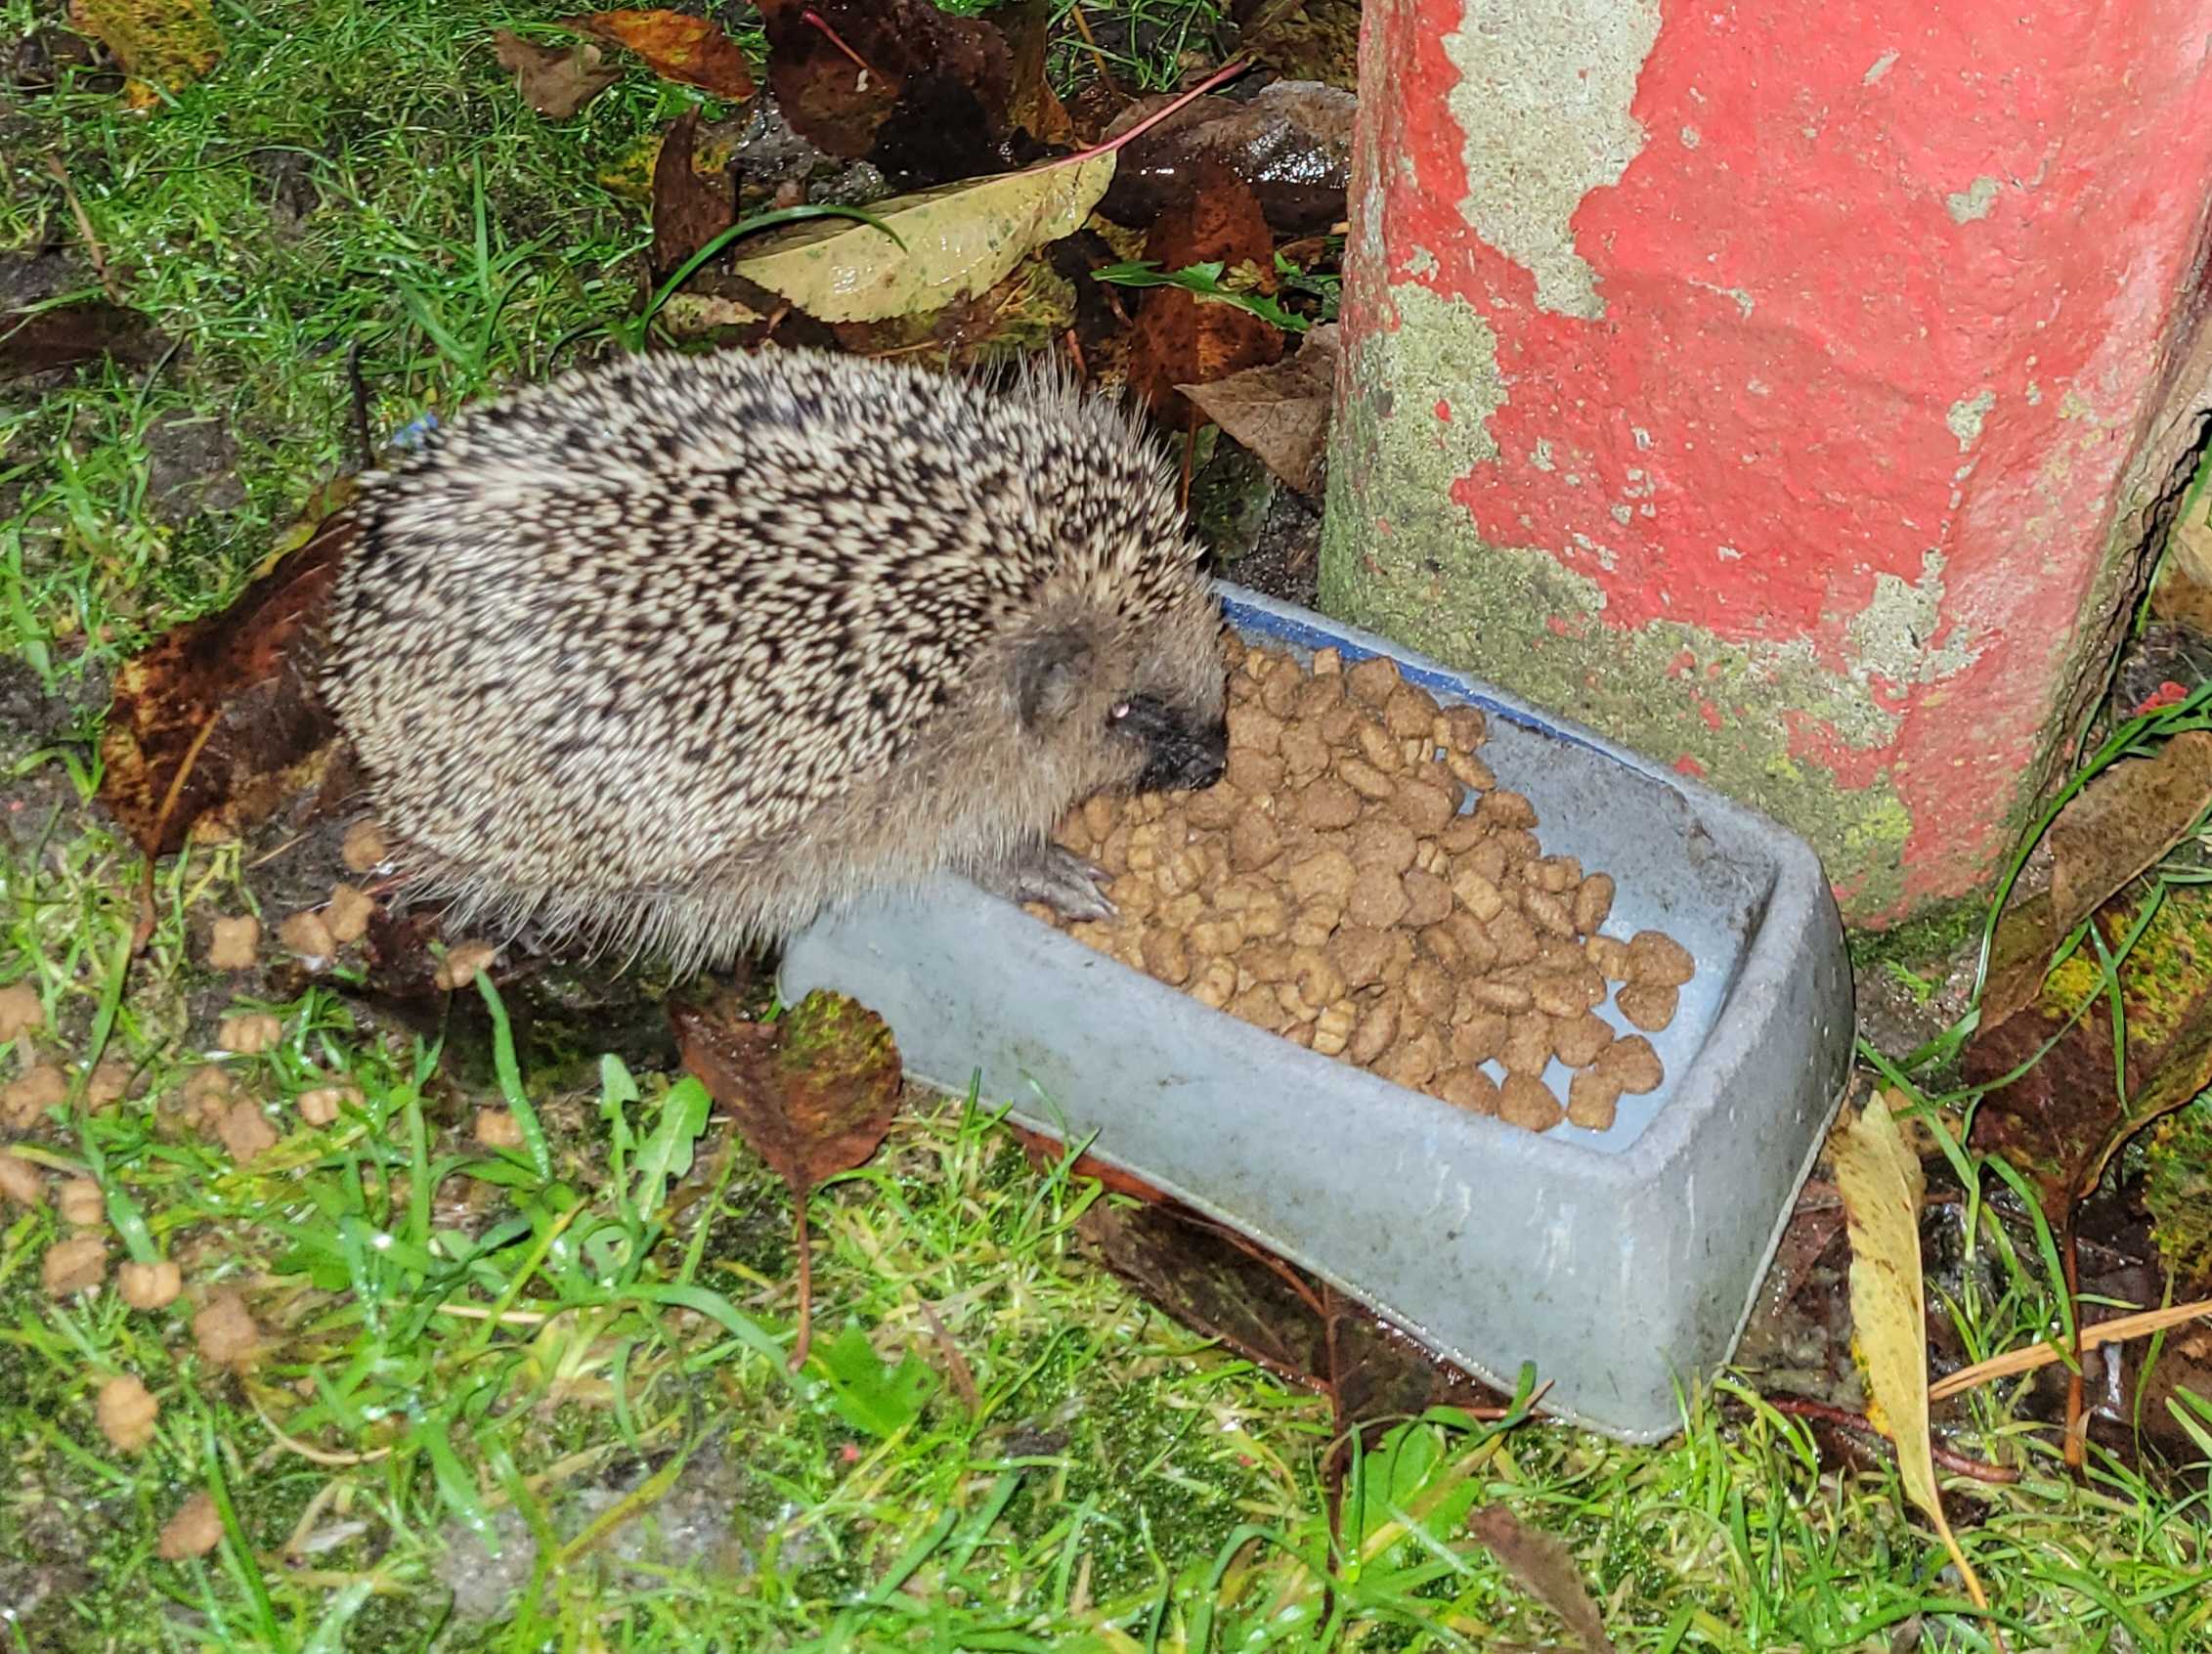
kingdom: Animalia
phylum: Chordata
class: Mammalia
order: Erinaceomorpha
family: Erinaceidae
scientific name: Erinaceidae
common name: Pindsvin
